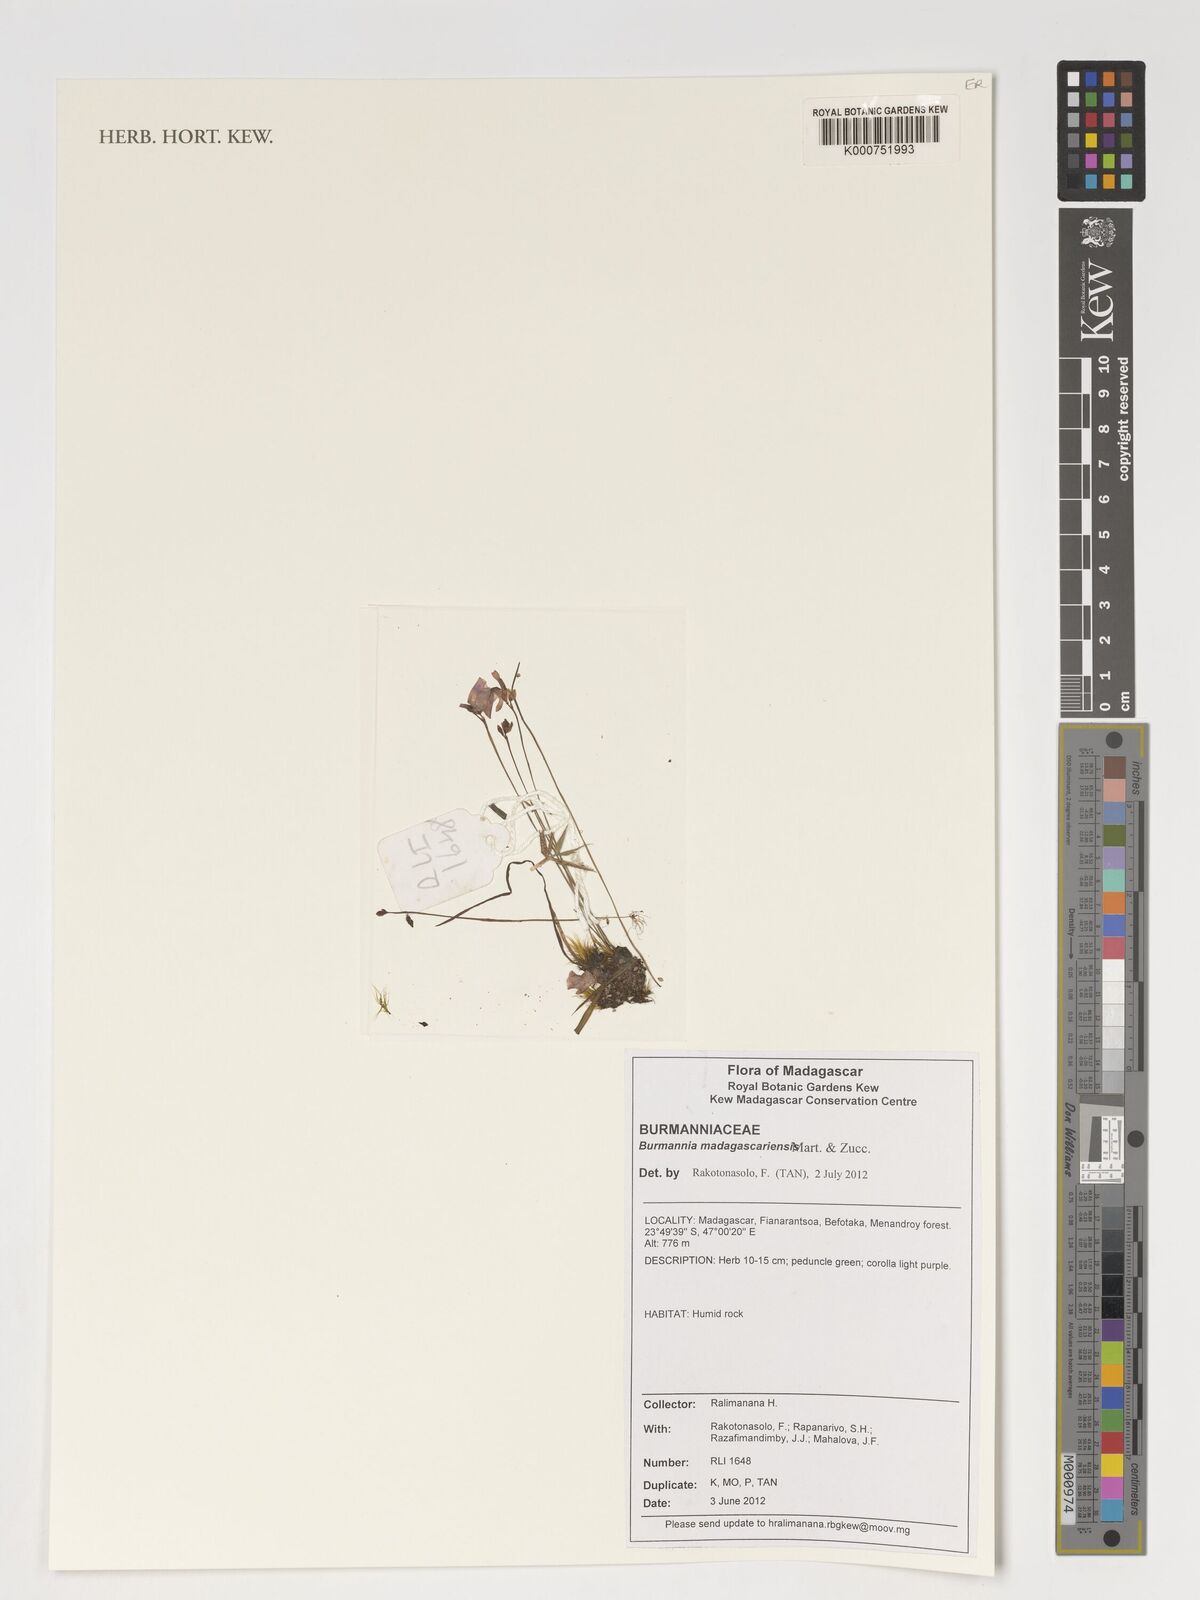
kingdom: Plantae
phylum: Tracheophyta
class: Liliopsida
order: Dioscoreales
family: Burmanniaceae
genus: Burmannia
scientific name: Burmannia madagascariensis
